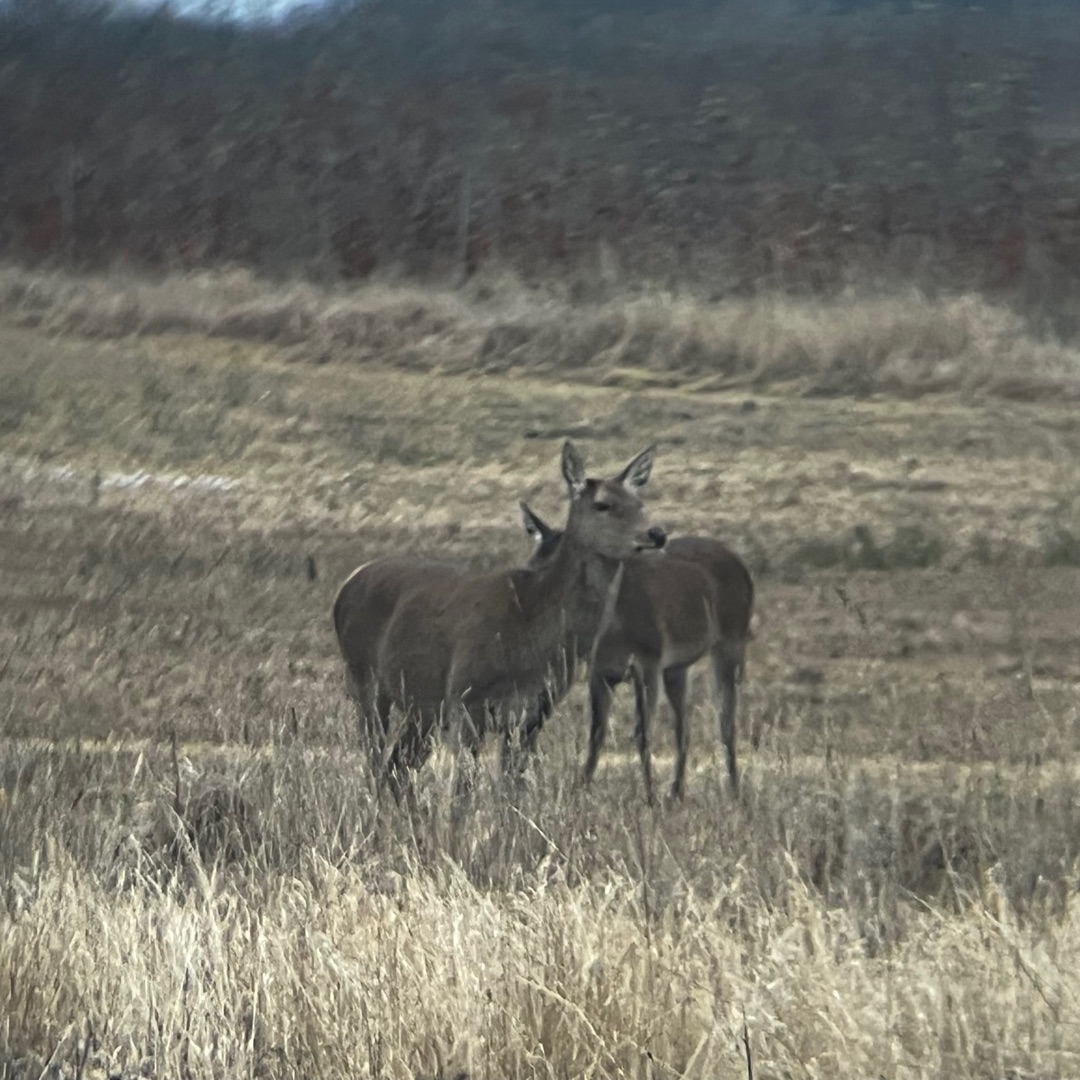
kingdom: Animalia
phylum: Chordata
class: Mammalia
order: Artiodactyla
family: Cervidae
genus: Cervus
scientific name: Cervus elaphus
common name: Krondyr
